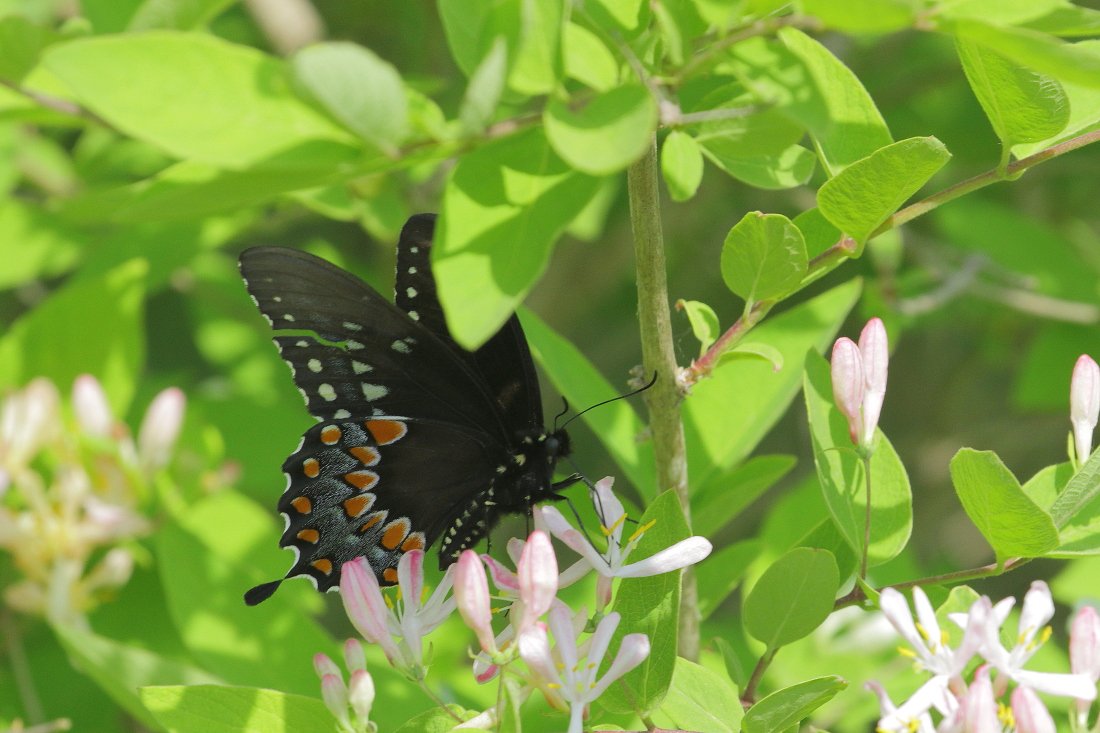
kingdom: Animalia
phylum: Arthropoda
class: Insecta
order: Lepidoptera
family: Papilionidae
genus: Pterourus
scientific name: Pterourus troilus
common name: Spicebush Swallowtail
